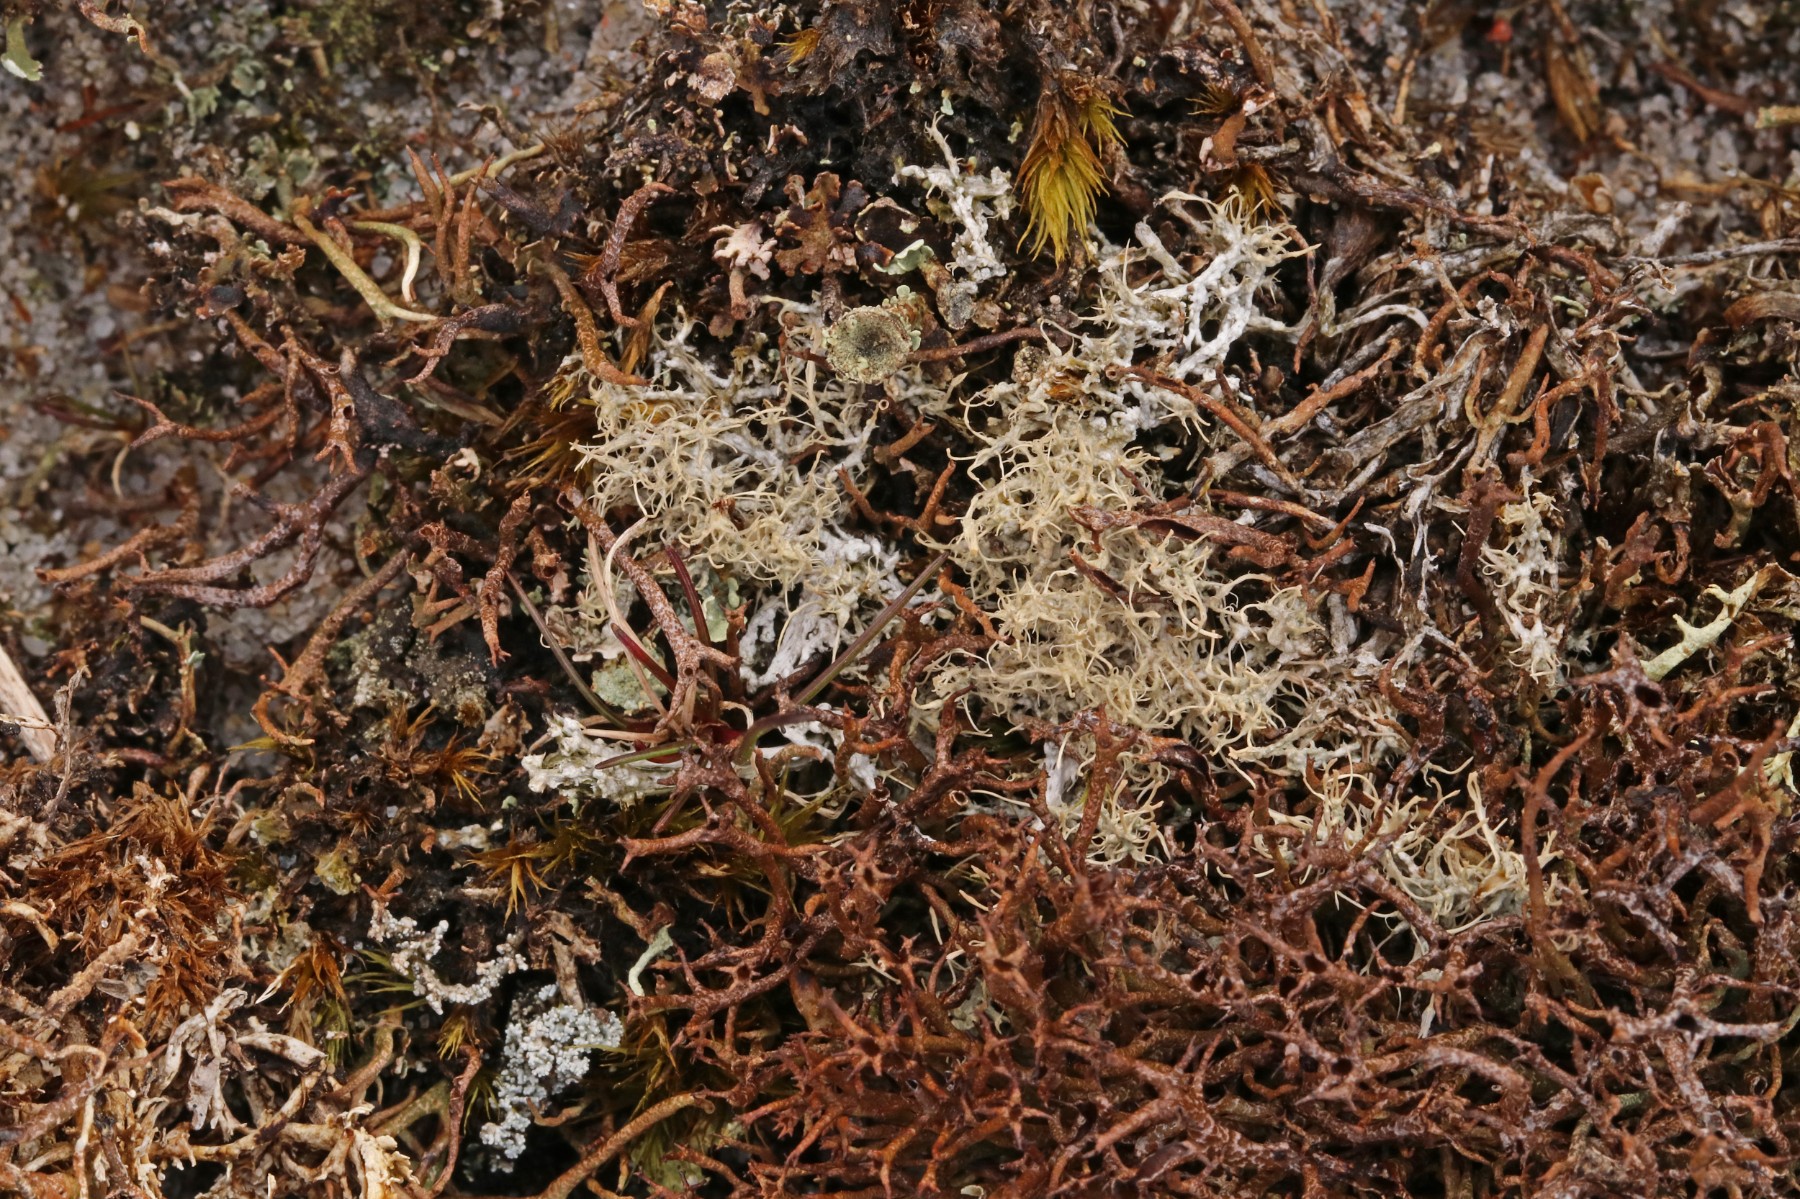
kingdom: Fungi
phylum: Ascomycota
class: Lecanoromycetes
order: Pertusariales
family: Ochrolechiaceae
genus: Ochrolechia
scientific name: Ochrolechia frigida
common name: fjeld-blegskivelav
